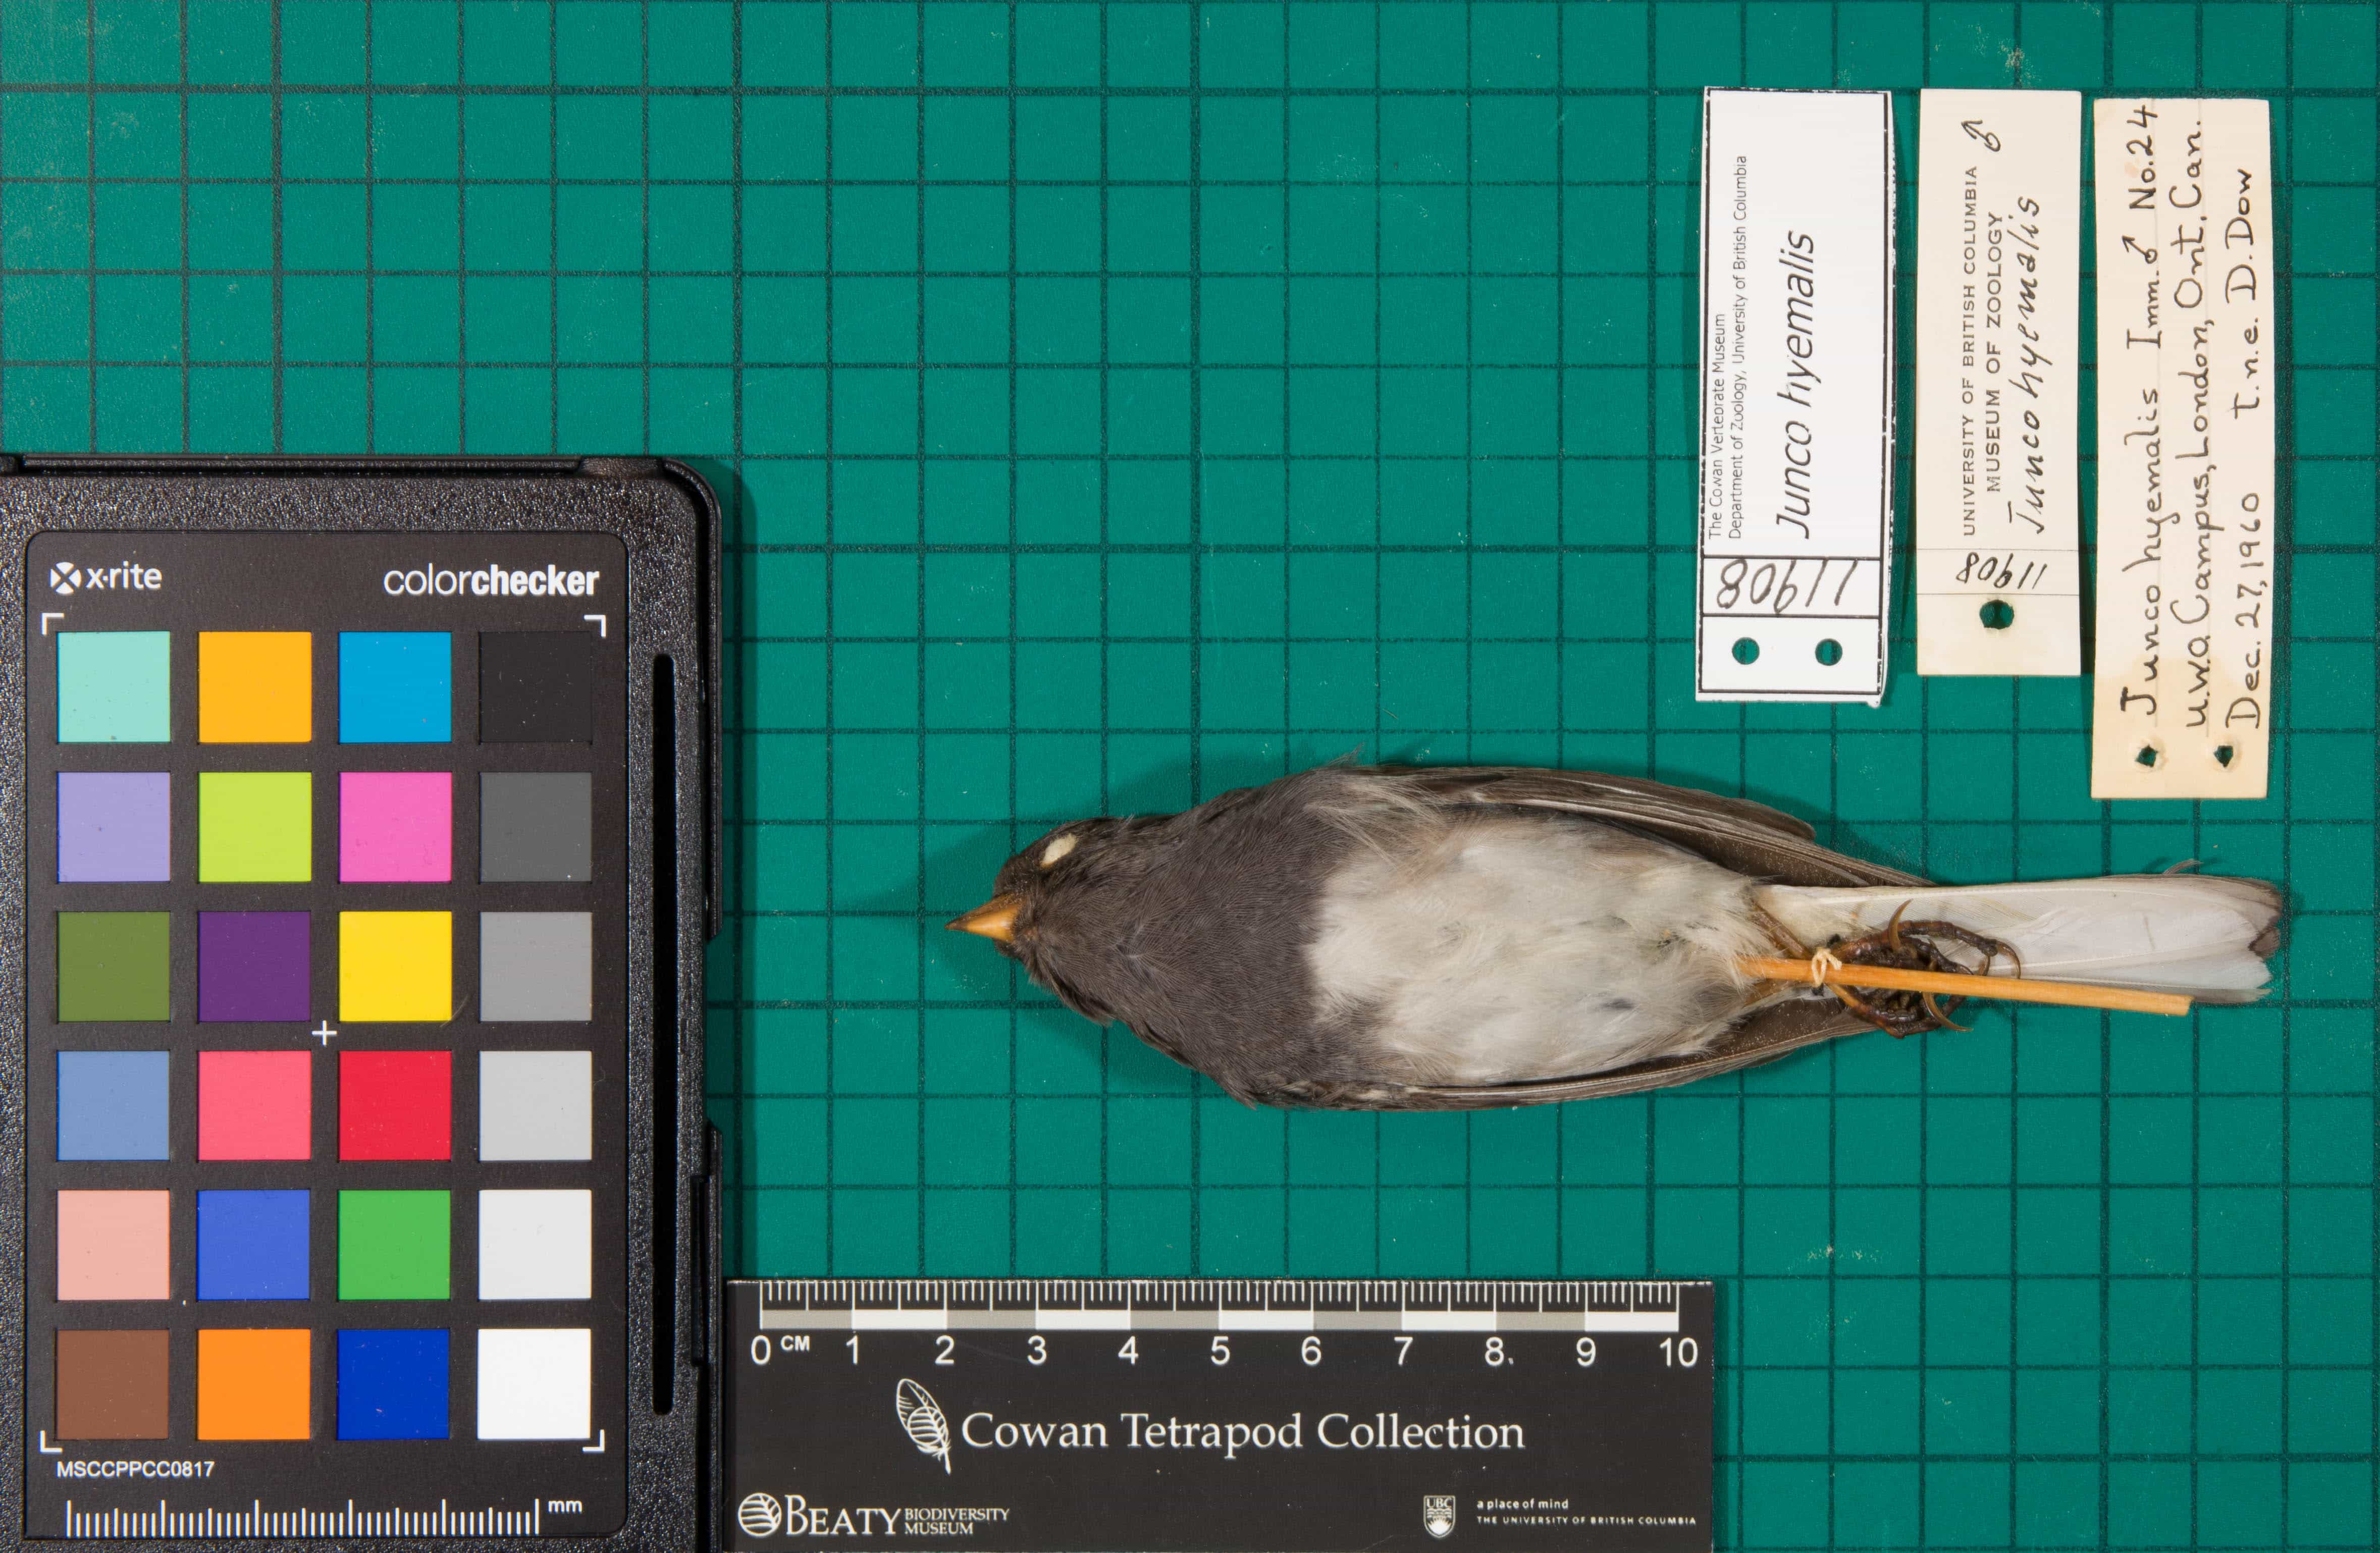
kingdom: Animalia
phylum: Chordata
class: Aves
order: Passeriformes
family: Passerellidae
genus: Junco
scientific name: Junco hyemalis
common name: Dark-eyed Junco
